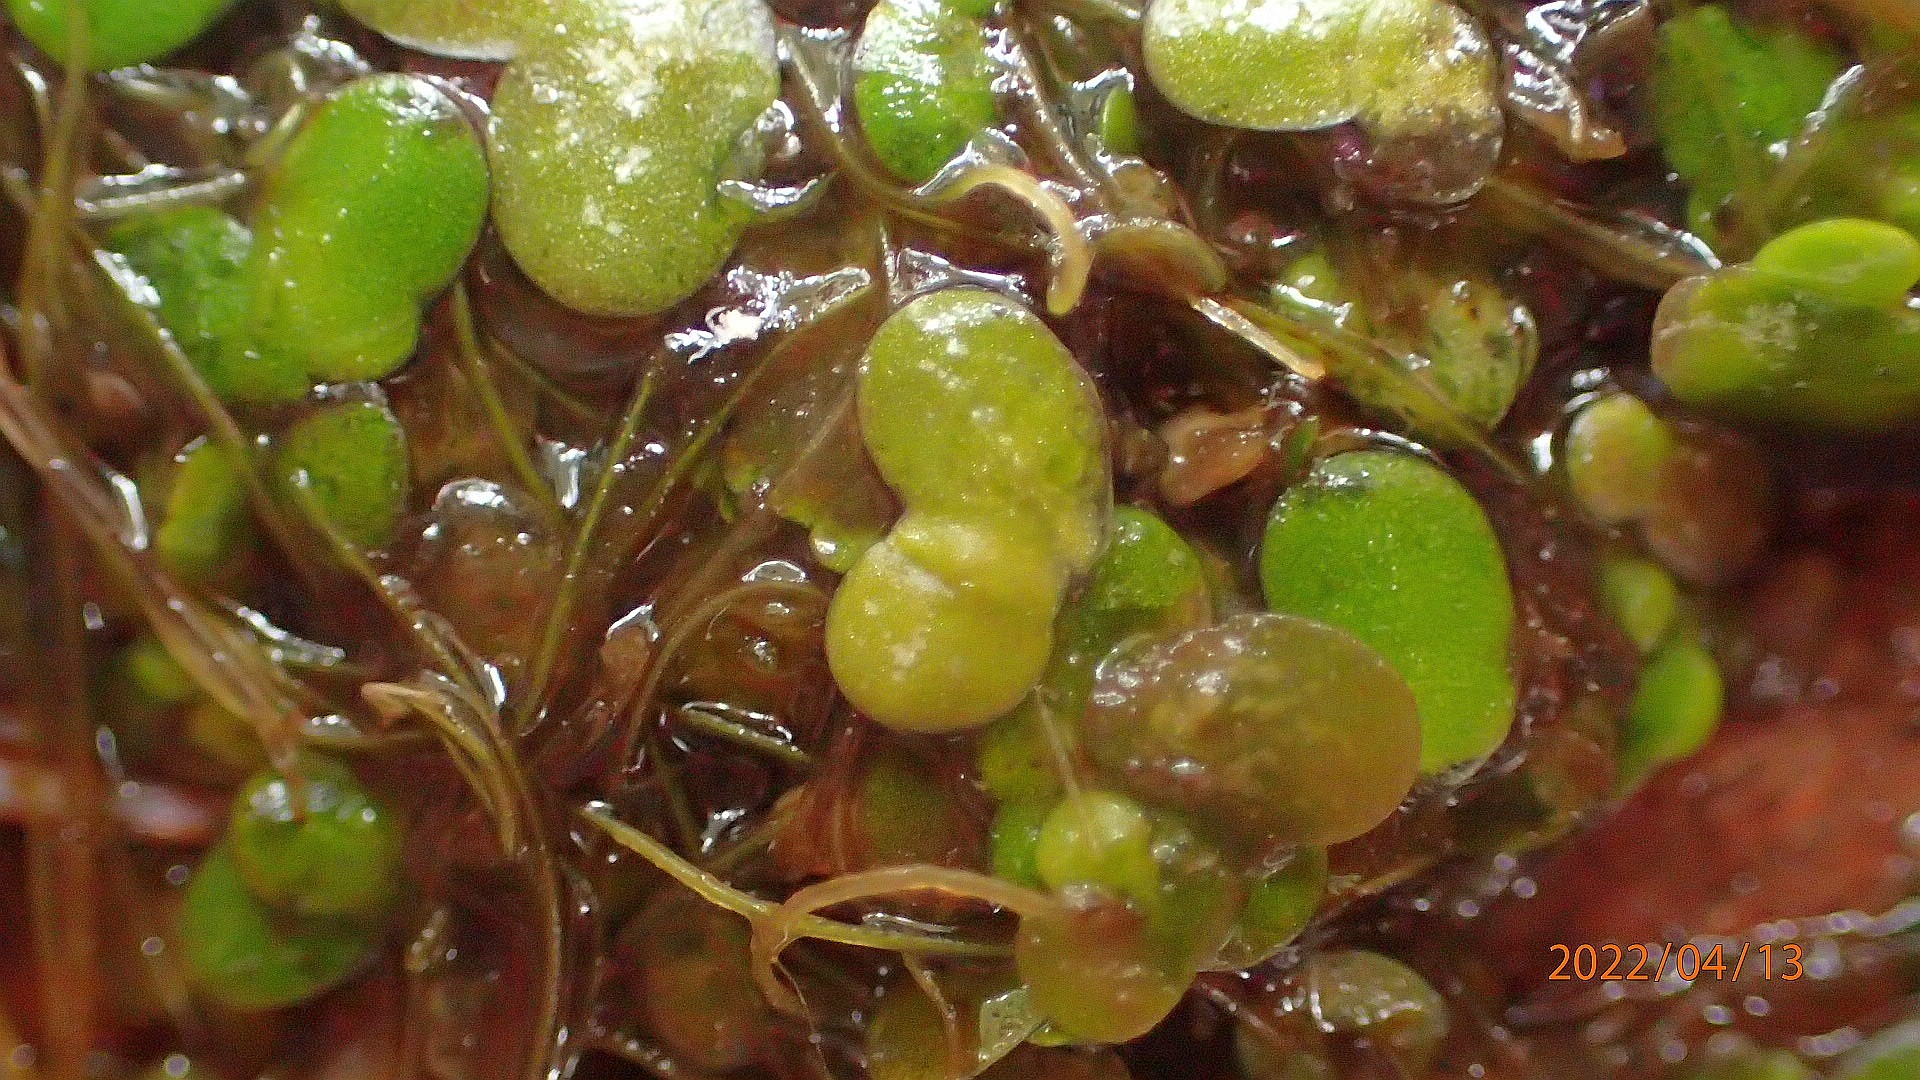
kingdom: Plantae
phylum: Tracheophyta
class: Liliopsida
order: Alismatales
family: Araceae
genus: Lemna
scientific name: Lemna turionifera
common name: Rød andemad
